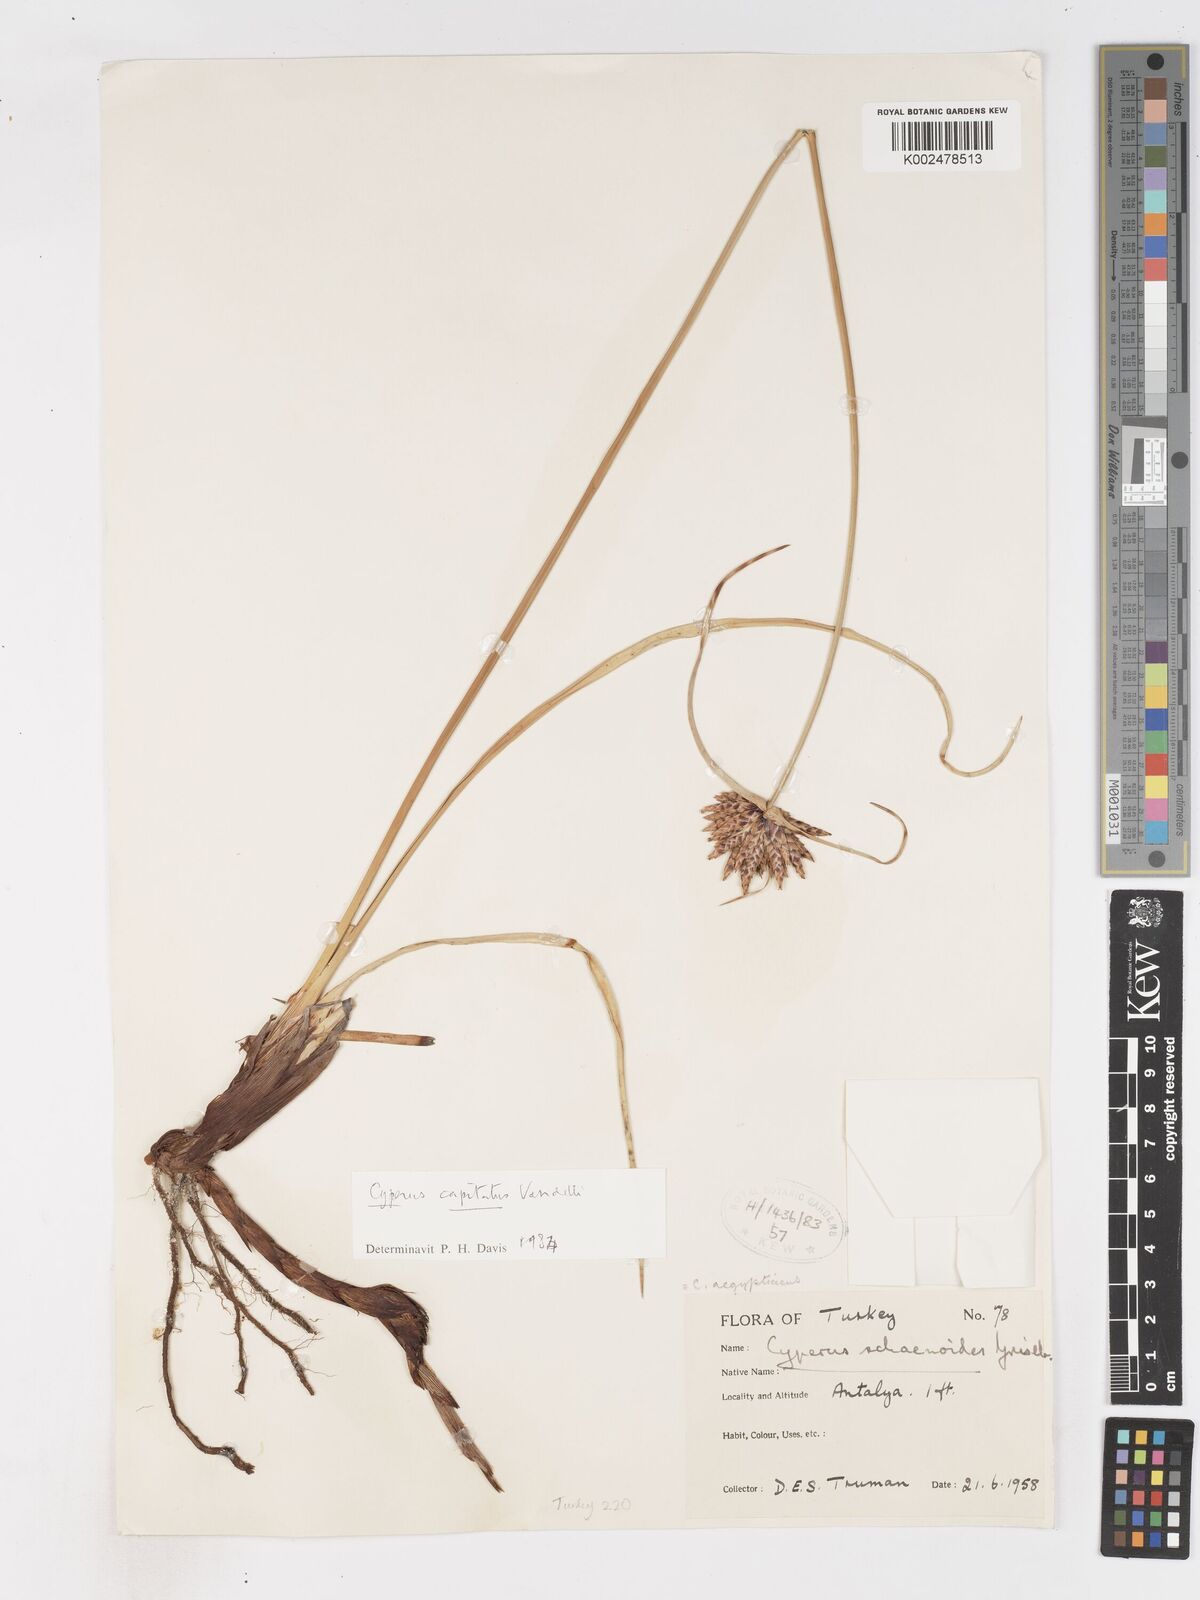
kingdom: Plantae
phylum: Tracheophyta
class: Liliopsida
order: Poales
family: Cyperaceae
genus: Cyperus
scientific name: Cyperus capitatus
